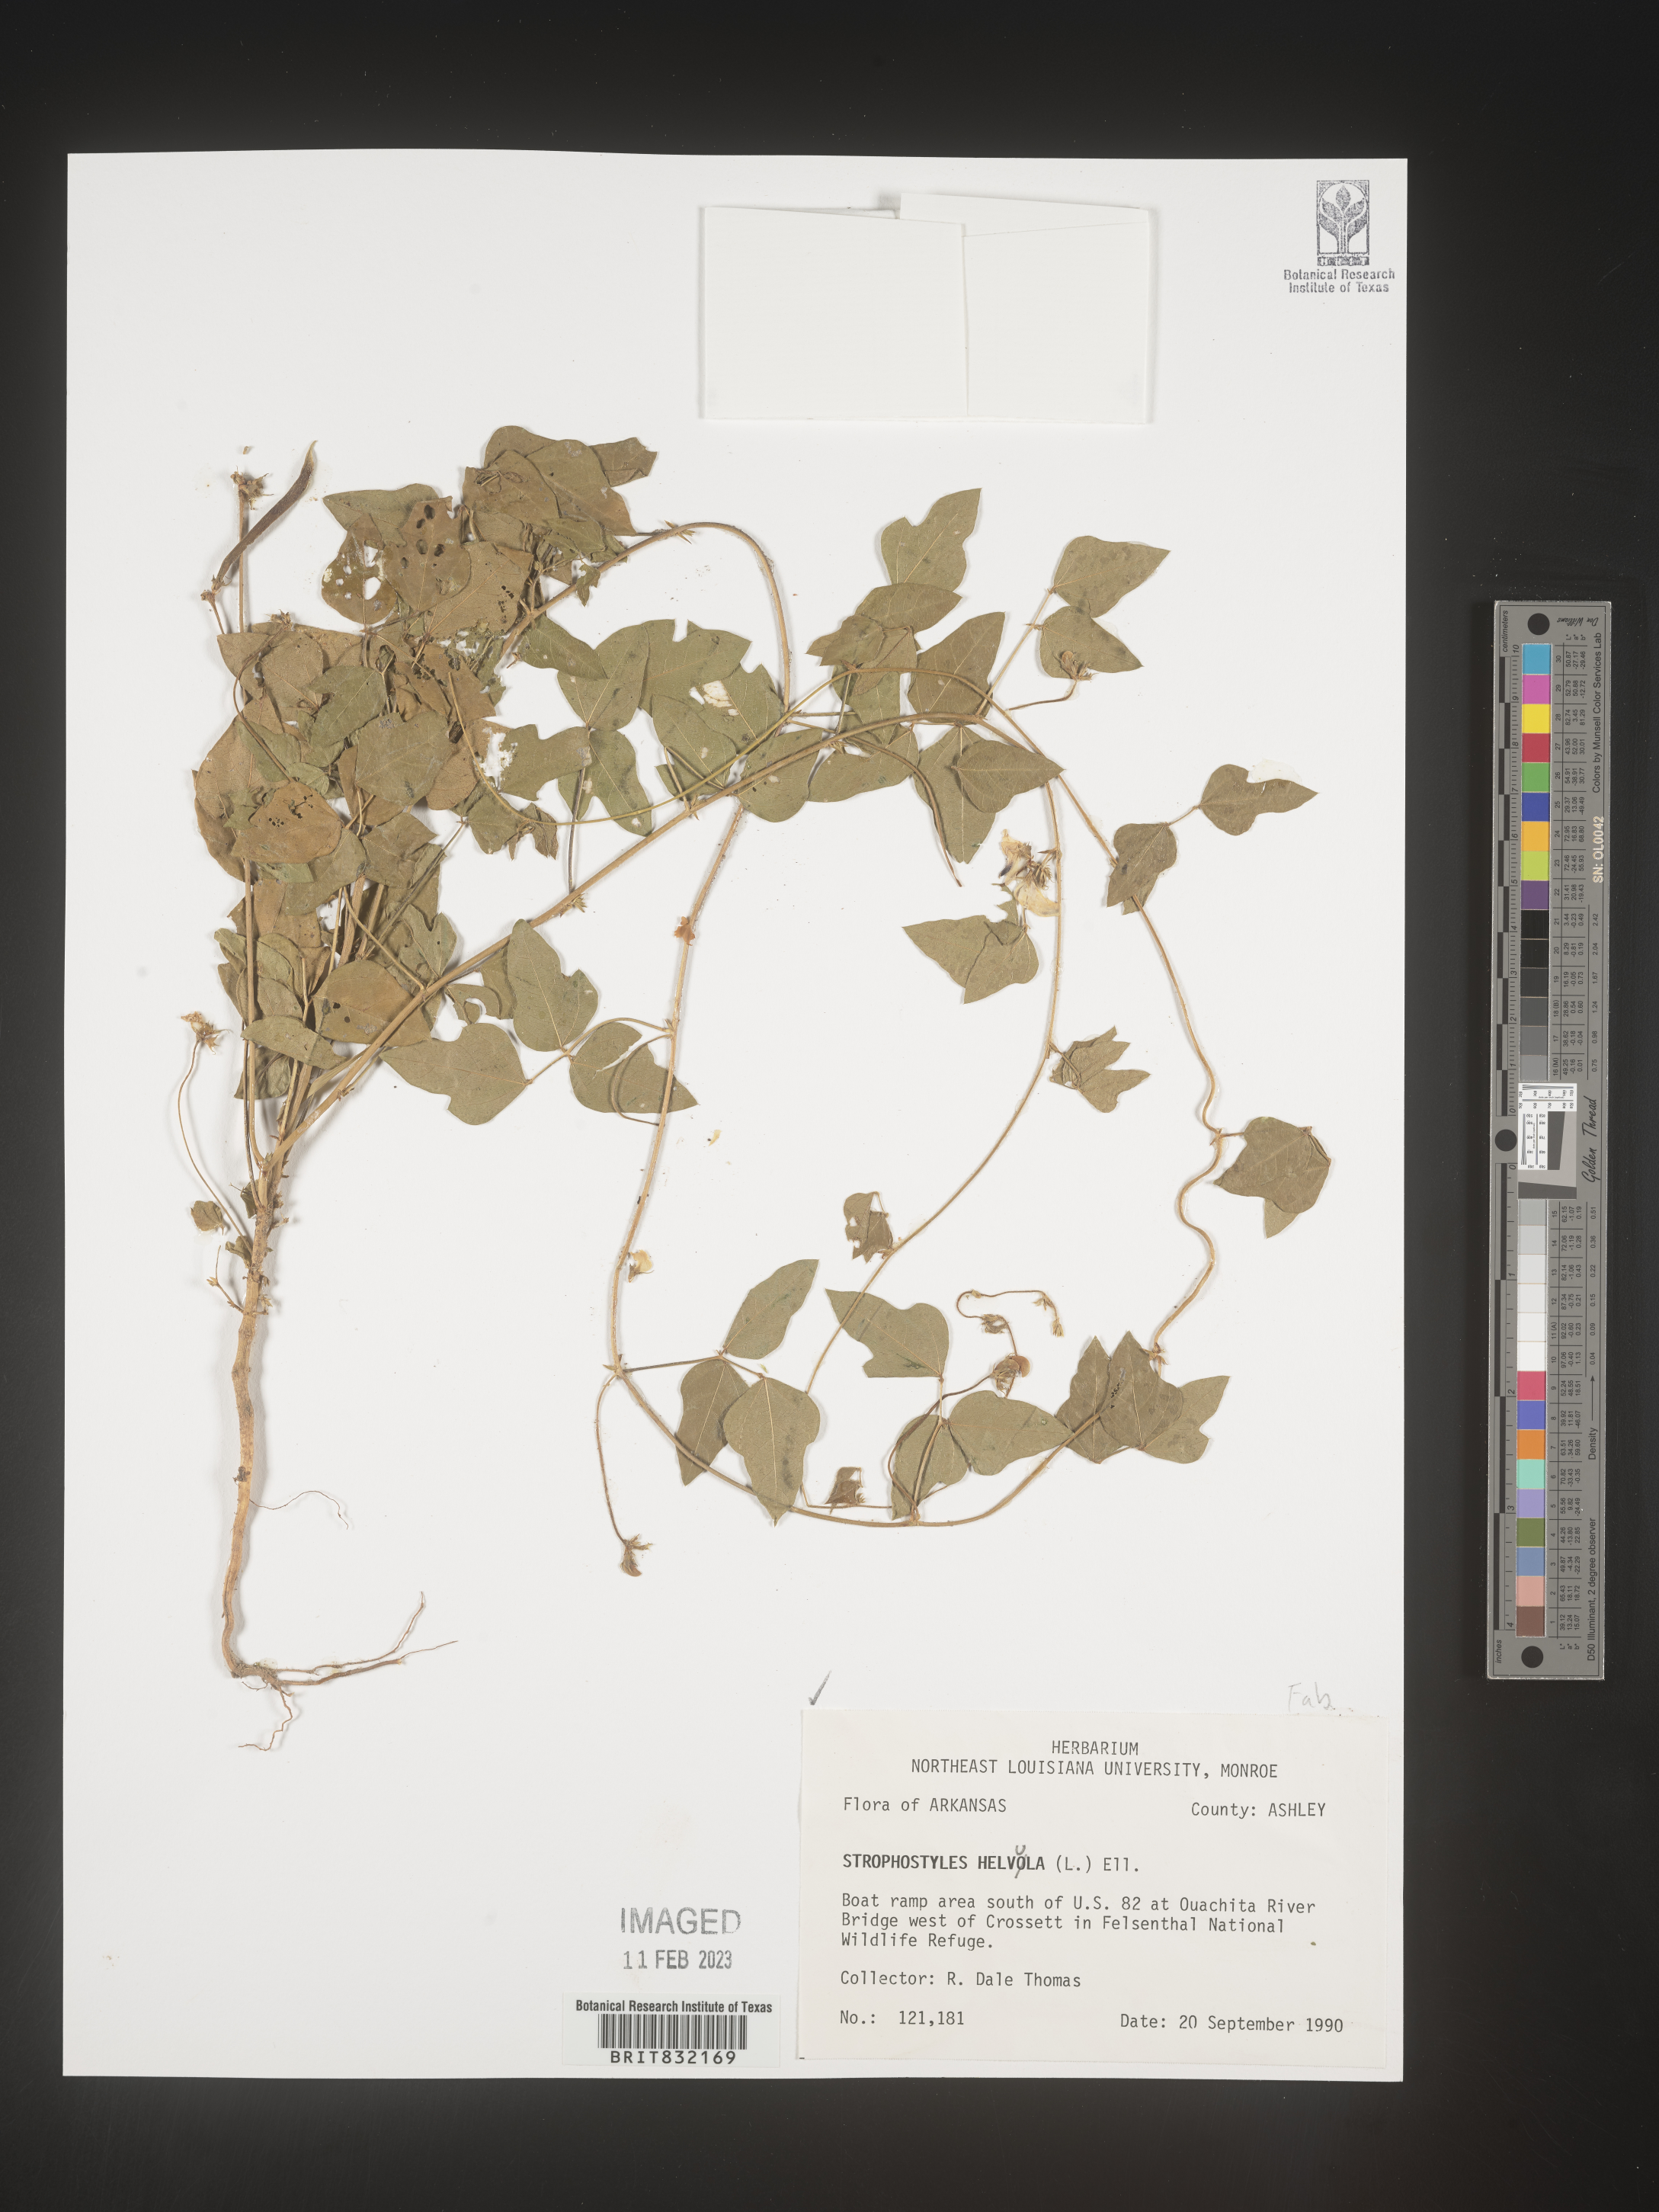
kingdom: Plantae
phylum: Tracheophyta
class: Magnoliopsida
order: Fabales
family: Fabaceae
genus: Strophostyles
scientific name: Strophostyles helvola
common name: Trailing wild bean
